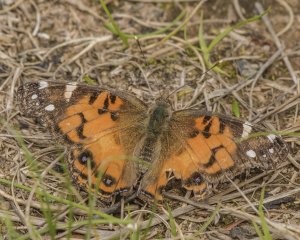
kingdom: Animalia
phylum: Arthropoda
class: Insecta
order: Lepidoptera
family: Nymphalidae
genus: Vanessa
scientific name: Vanessa virginiensis
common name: American Lady
